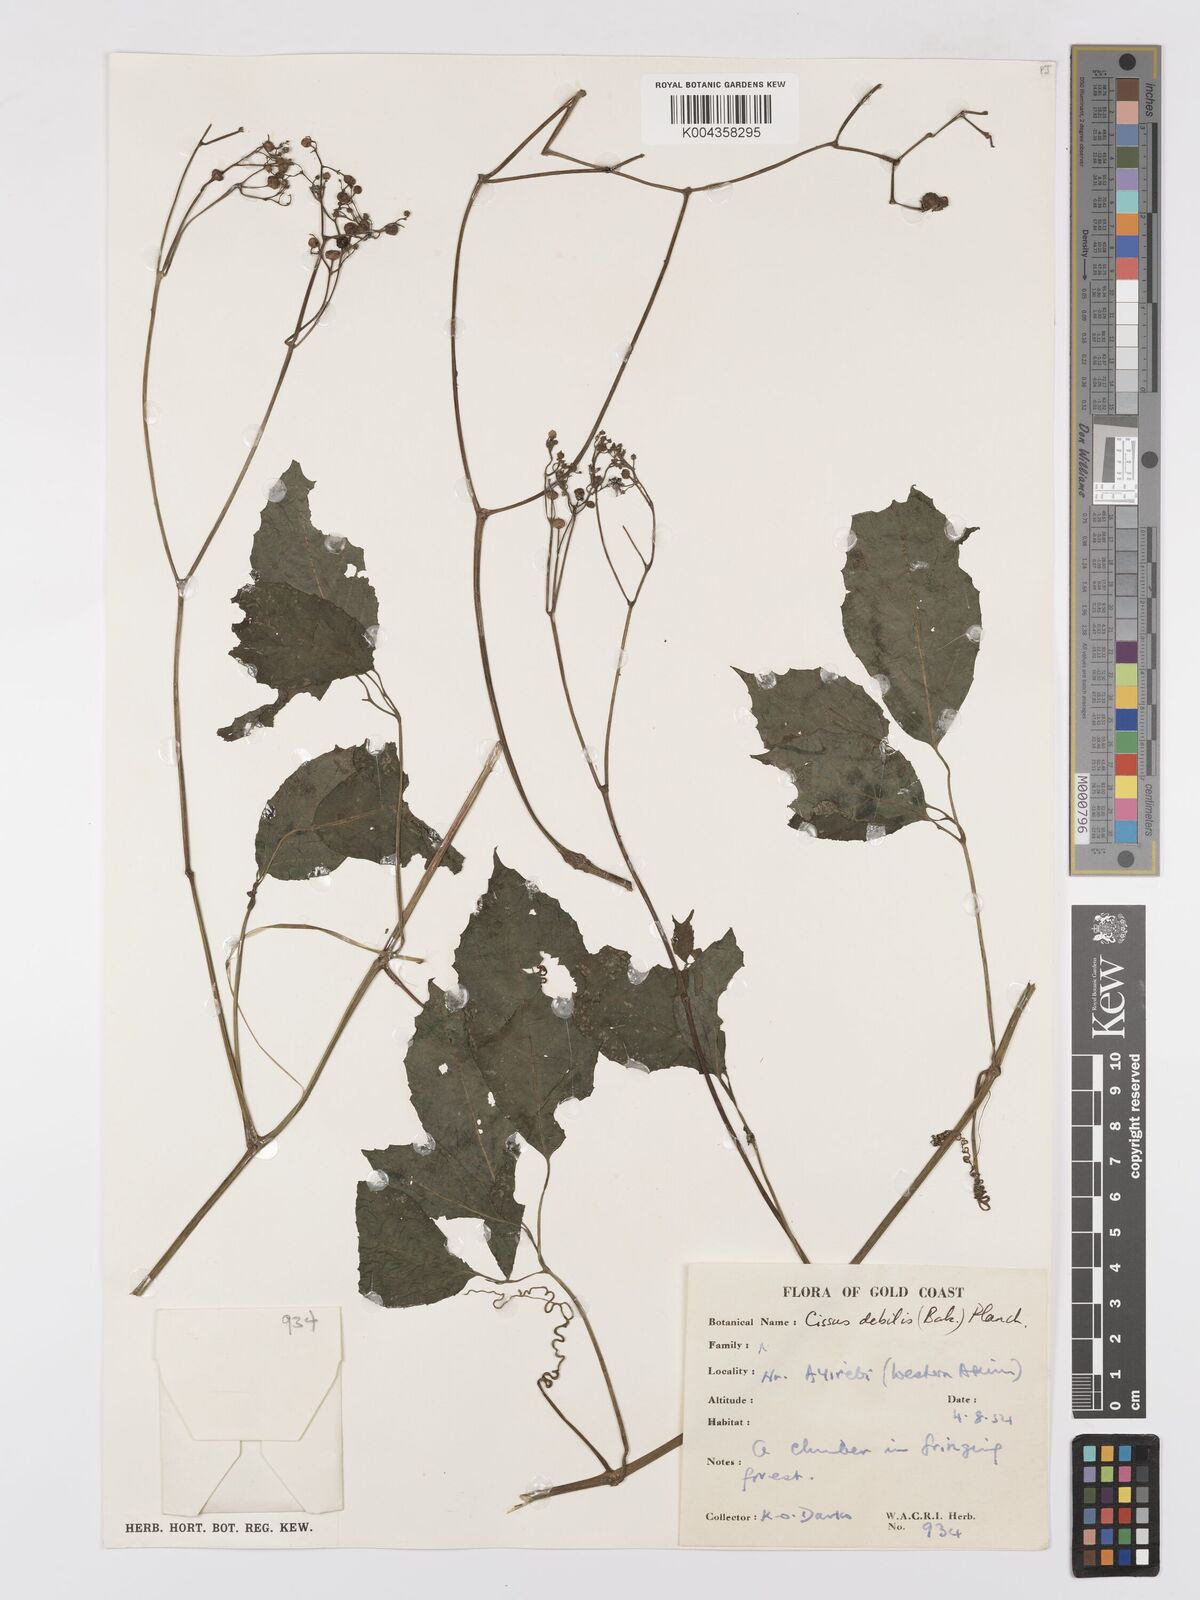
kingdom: Plantae
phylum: Tracheophyta
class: Magnoliopsida
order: Vitales
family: Vitaceae
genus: Afrocayratia
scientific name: Afrocayratia debilis
